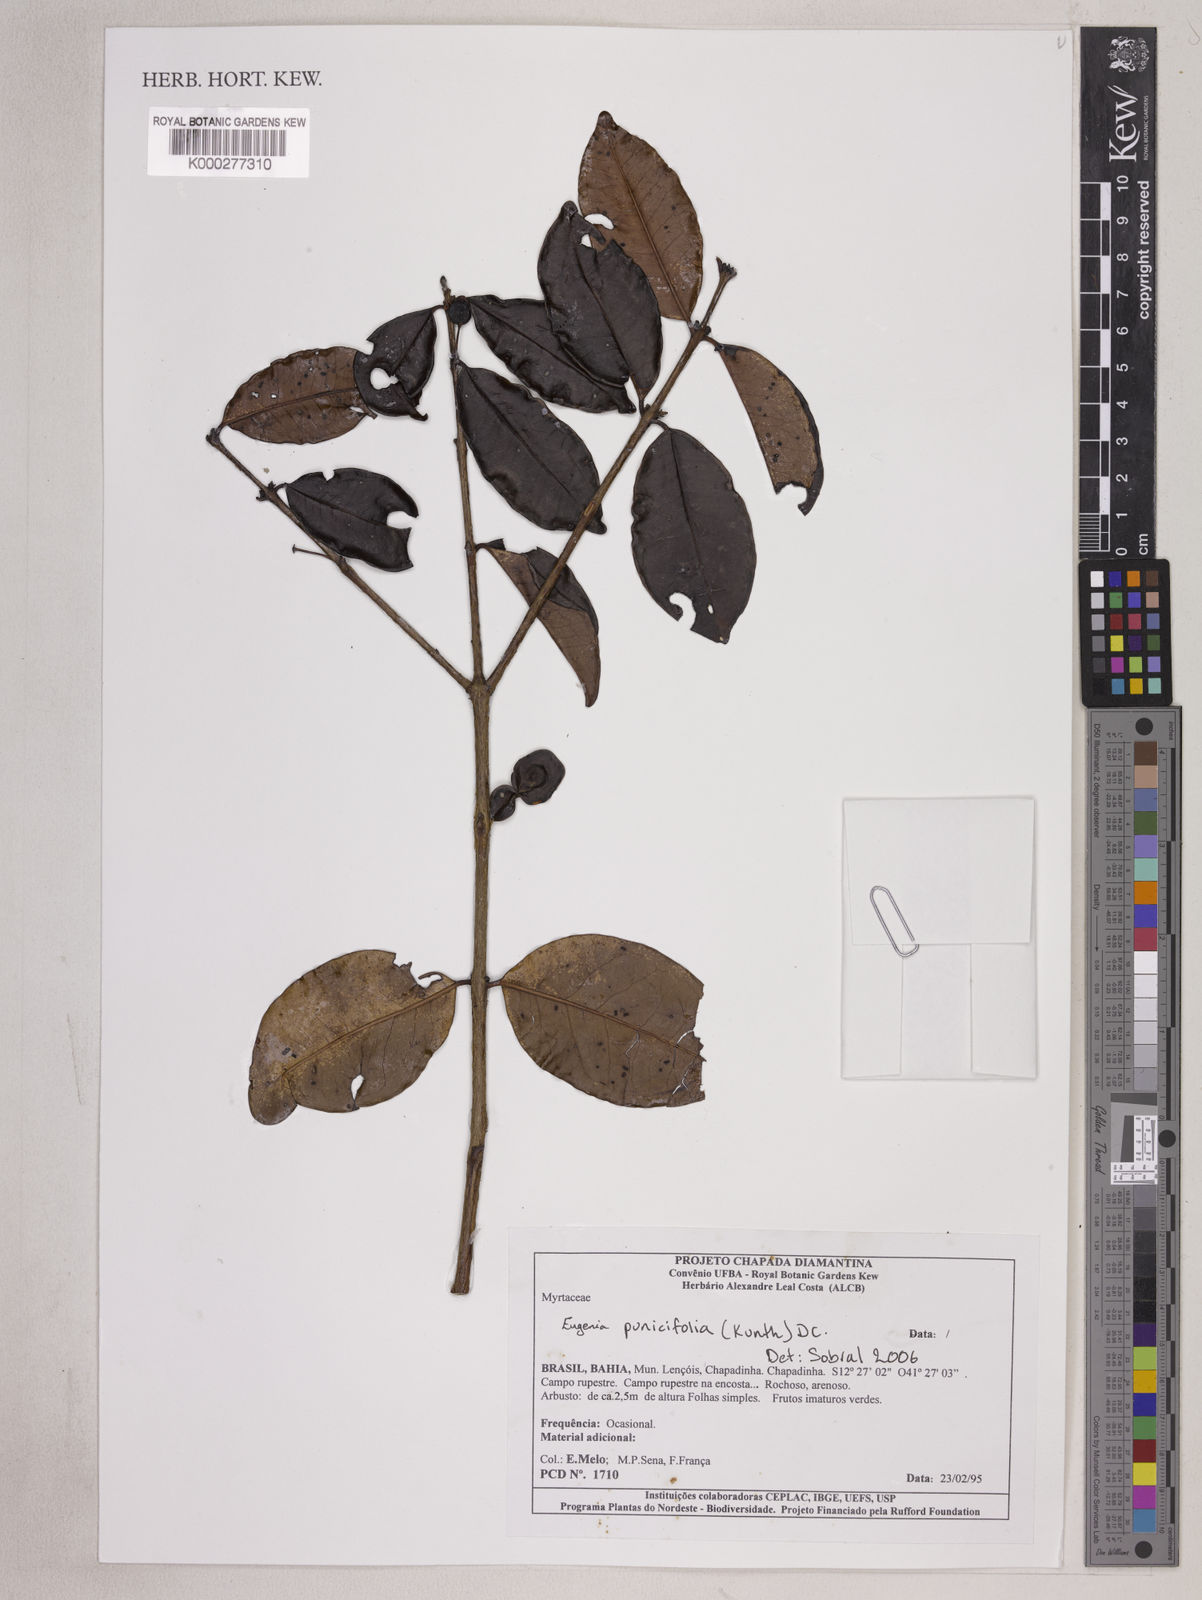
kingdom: Plantae
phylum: Tracheophyta
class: Magnoliopsida
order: Myrtales
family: Myrtaceae
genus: Eugenia
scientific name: Eugenia punicifolia
